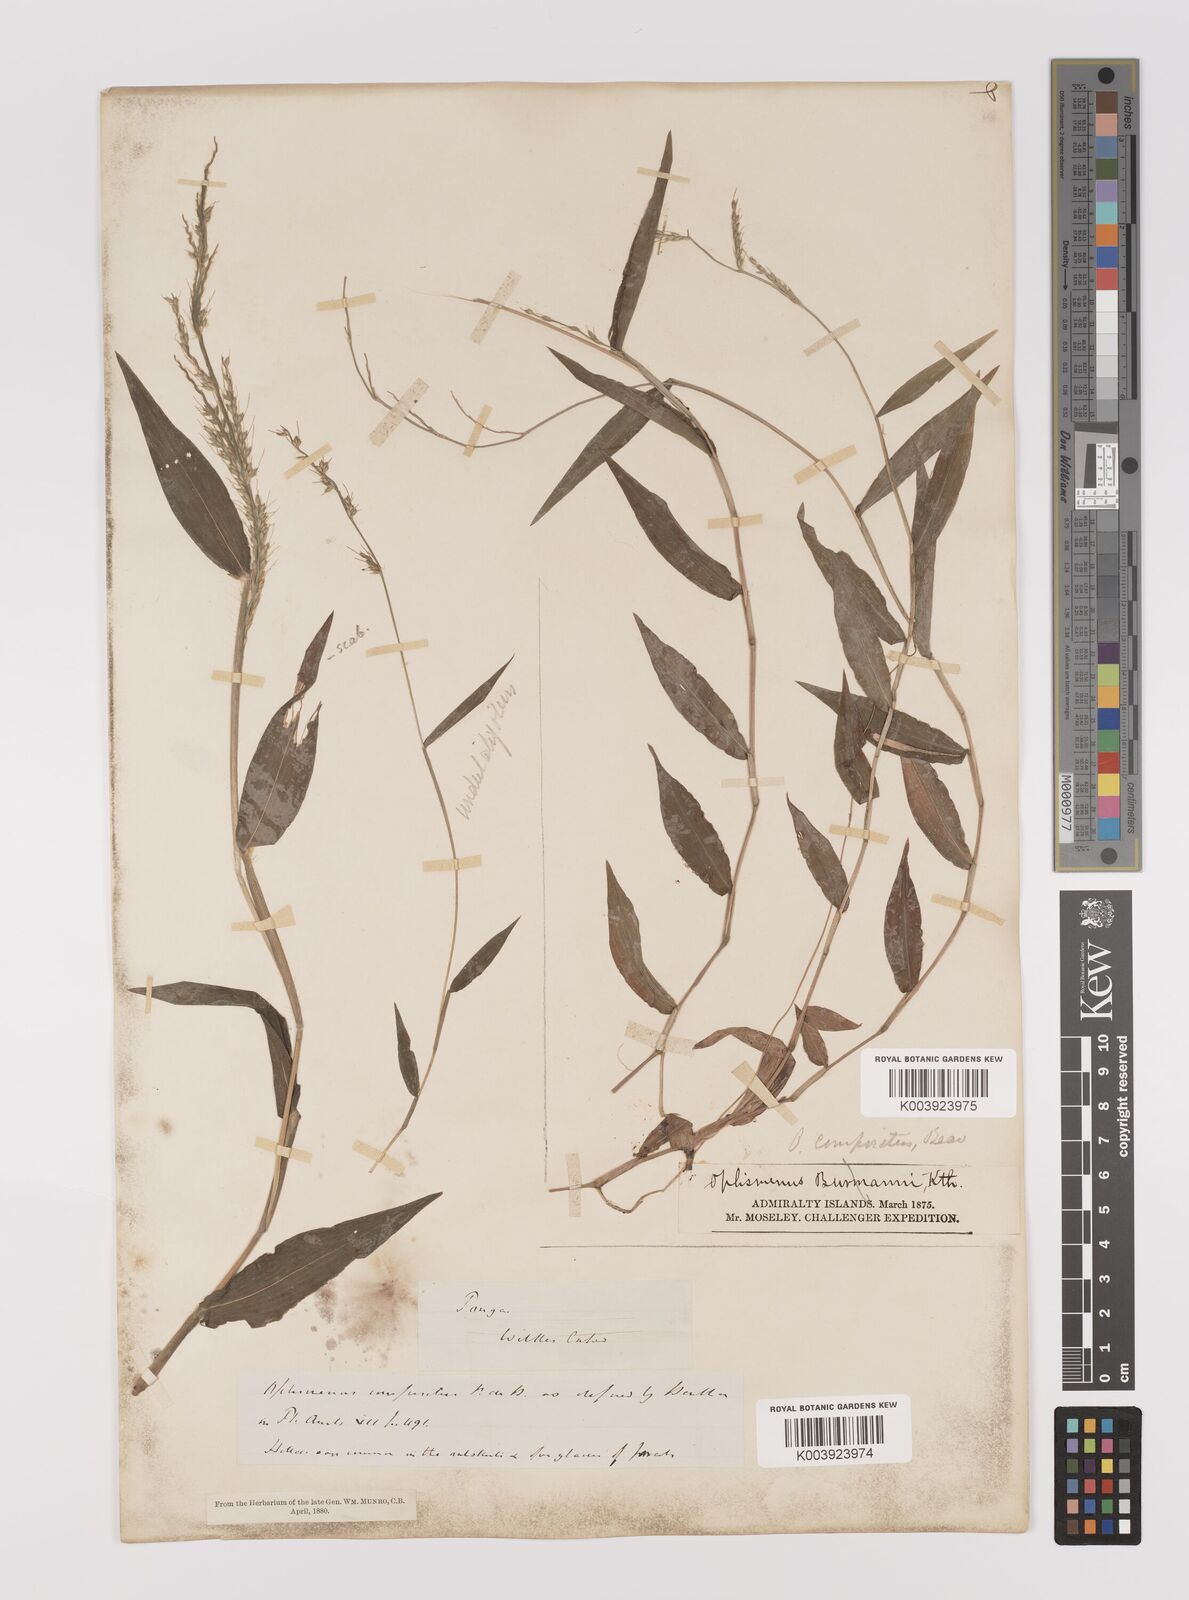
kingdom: Plantae
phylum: Tracheophyta
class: Liliopsida
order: Poales
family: Poaceae
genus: Oplismenus
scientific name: Oplismenus compositus
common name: Running mountain grass
